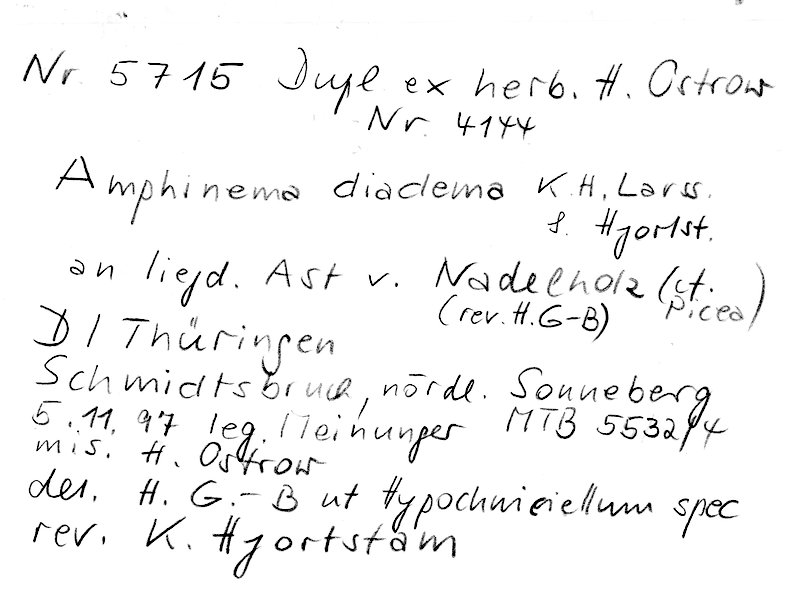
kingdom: Fungi
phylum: Basidiomycota
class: Agaricomycetes
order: Atheliales
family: Atheliaceae
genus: Amphinema
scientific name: Amphinema diadema
